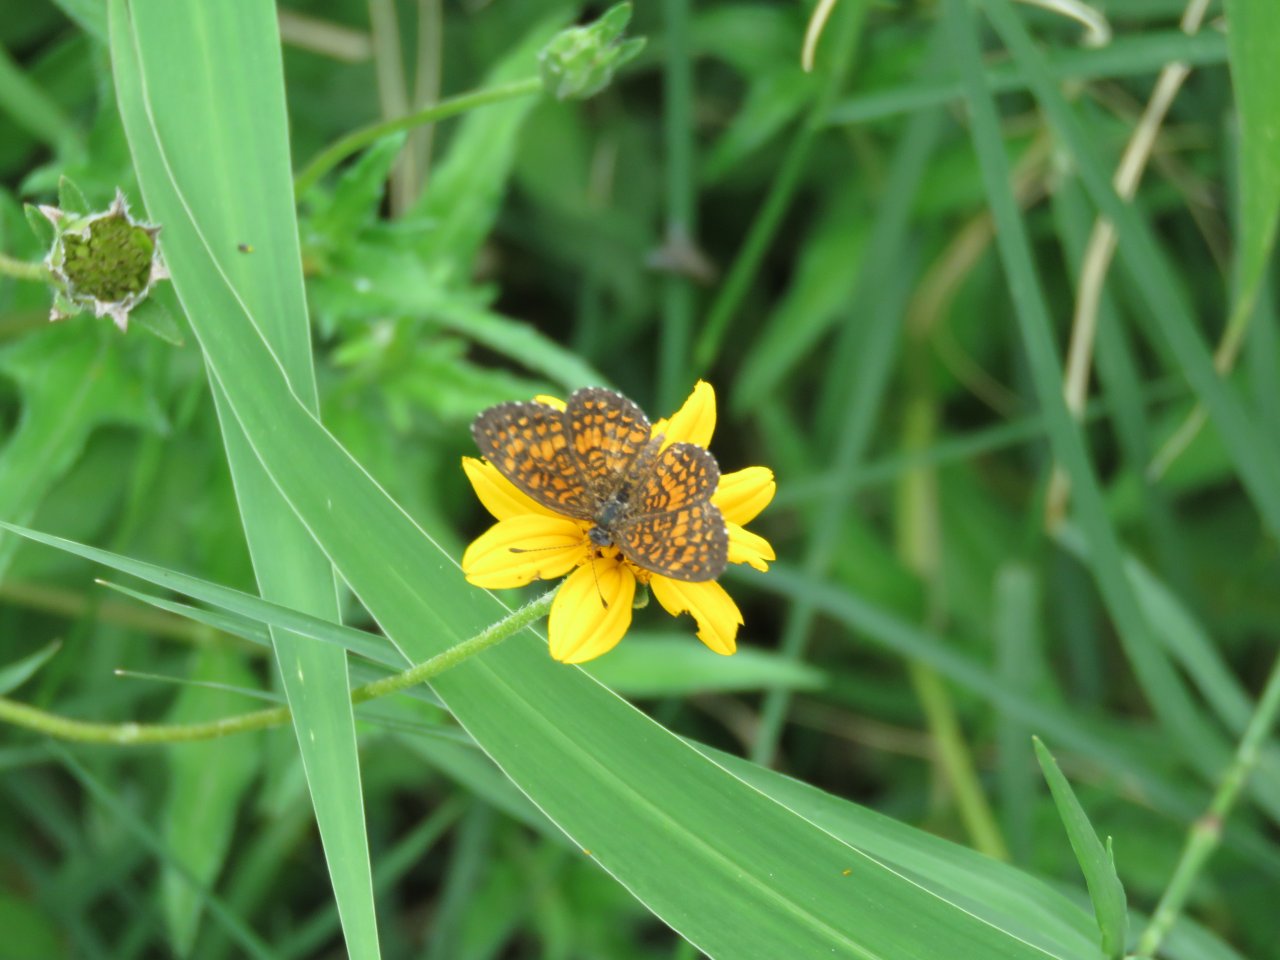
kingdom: Animalia
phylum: Arthropoda
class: Insecta
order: Lepidoptera
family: Nymphalidae
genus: Texola
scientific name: Texola elada
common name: Elada Checkerspot
